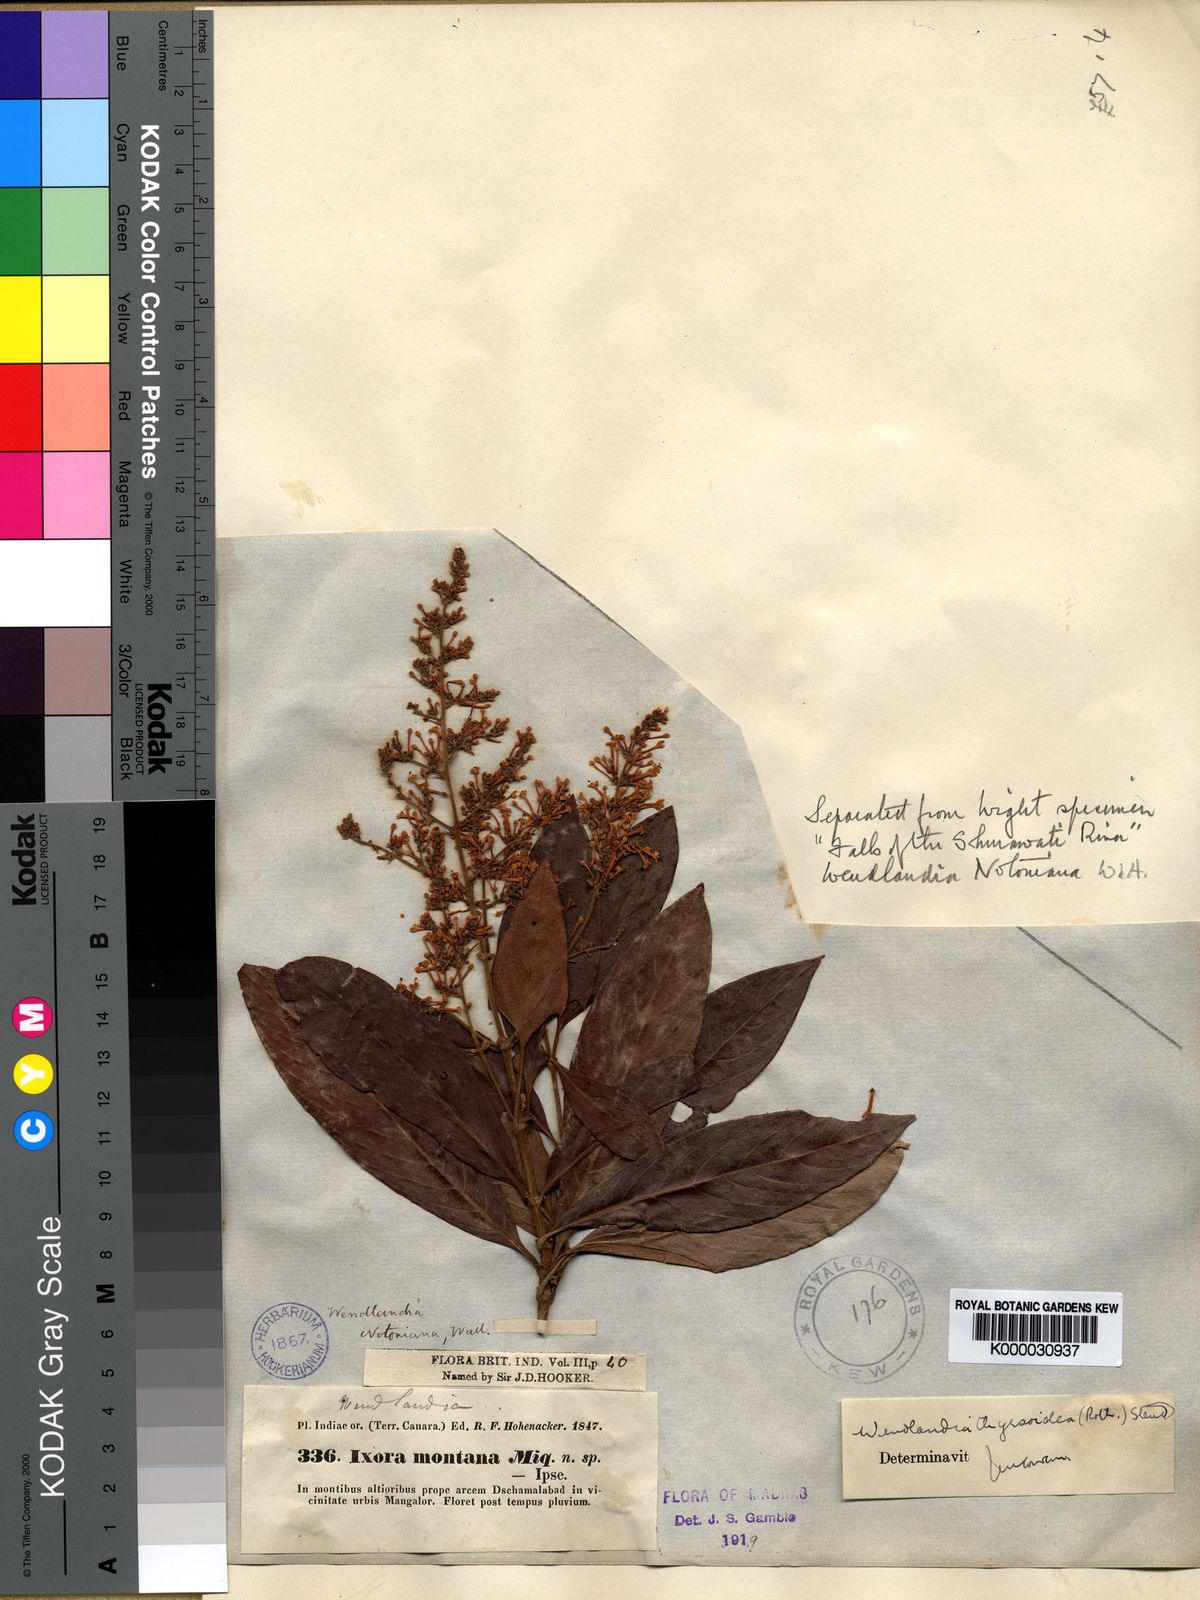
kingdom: Plantae
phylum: Tracheophyta
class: Magnoliopsida
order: Gentianales
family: Rubiaceae
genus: Wendlandia
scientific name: Wendlandia thyrsoidea
